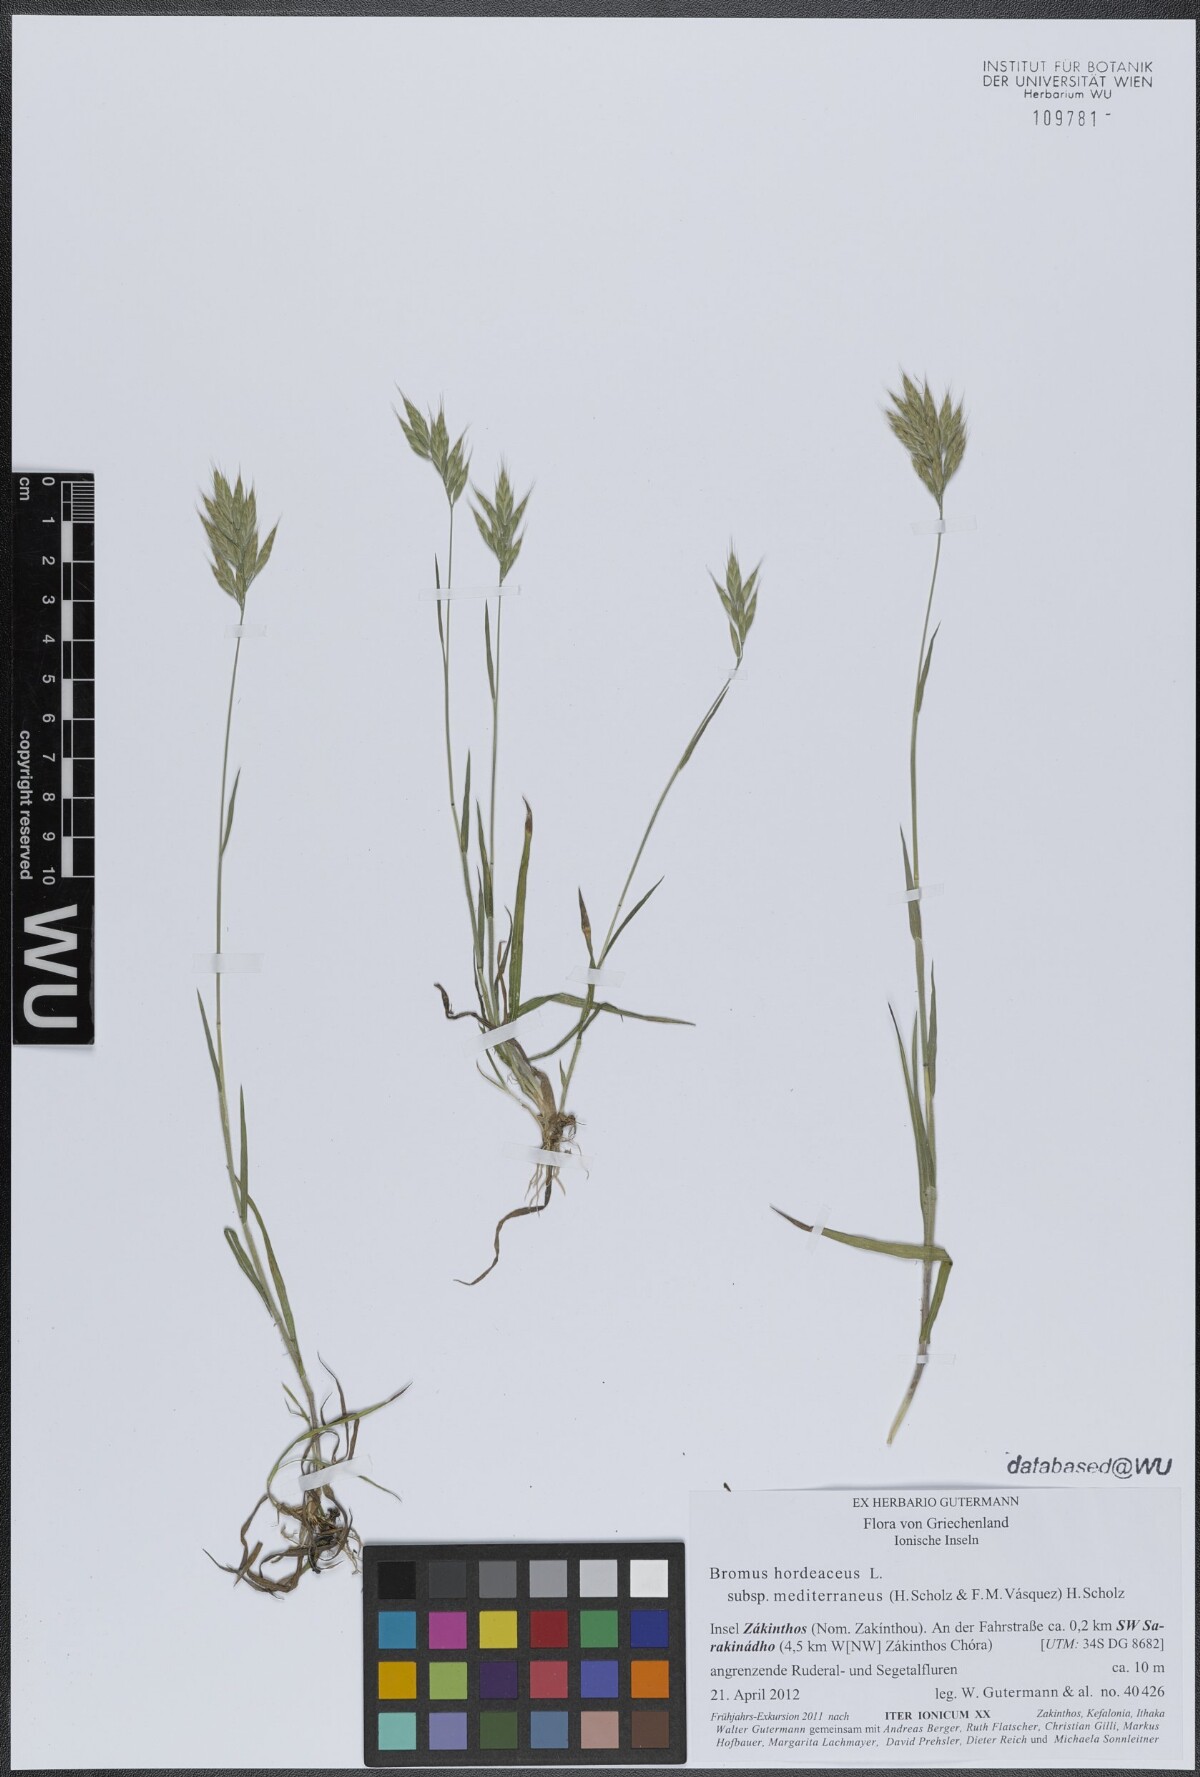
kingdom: Plantae
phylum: Tracheophyta
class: Liliopsida
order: Poales
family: Poaceae
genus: Bromus
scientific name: Bromus hordeaceus
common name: Soft brome
